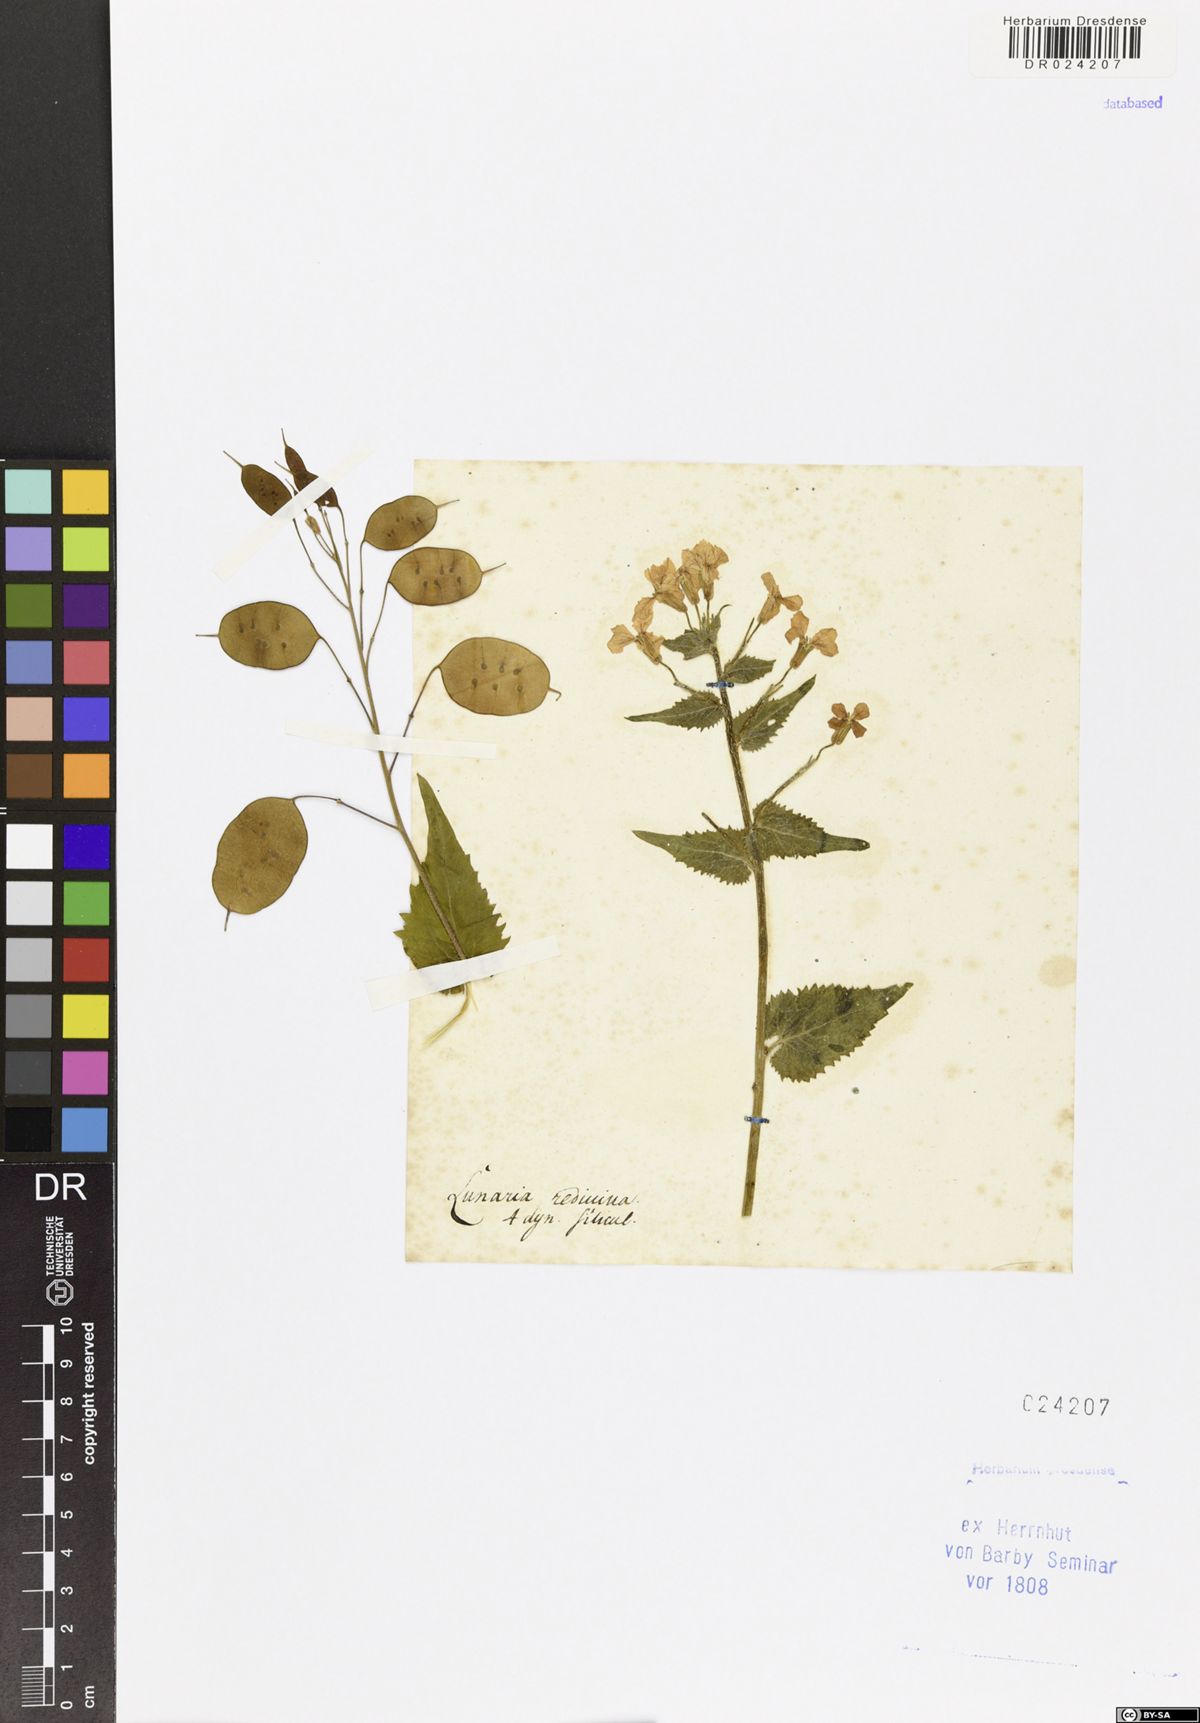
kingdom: Plantae
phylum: Tracheophyta
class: Magnoliopsida
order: Brassicales
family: Brassicaceae
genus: Lunaria
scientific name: Lunaria rediviva
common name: Perennial honesty
